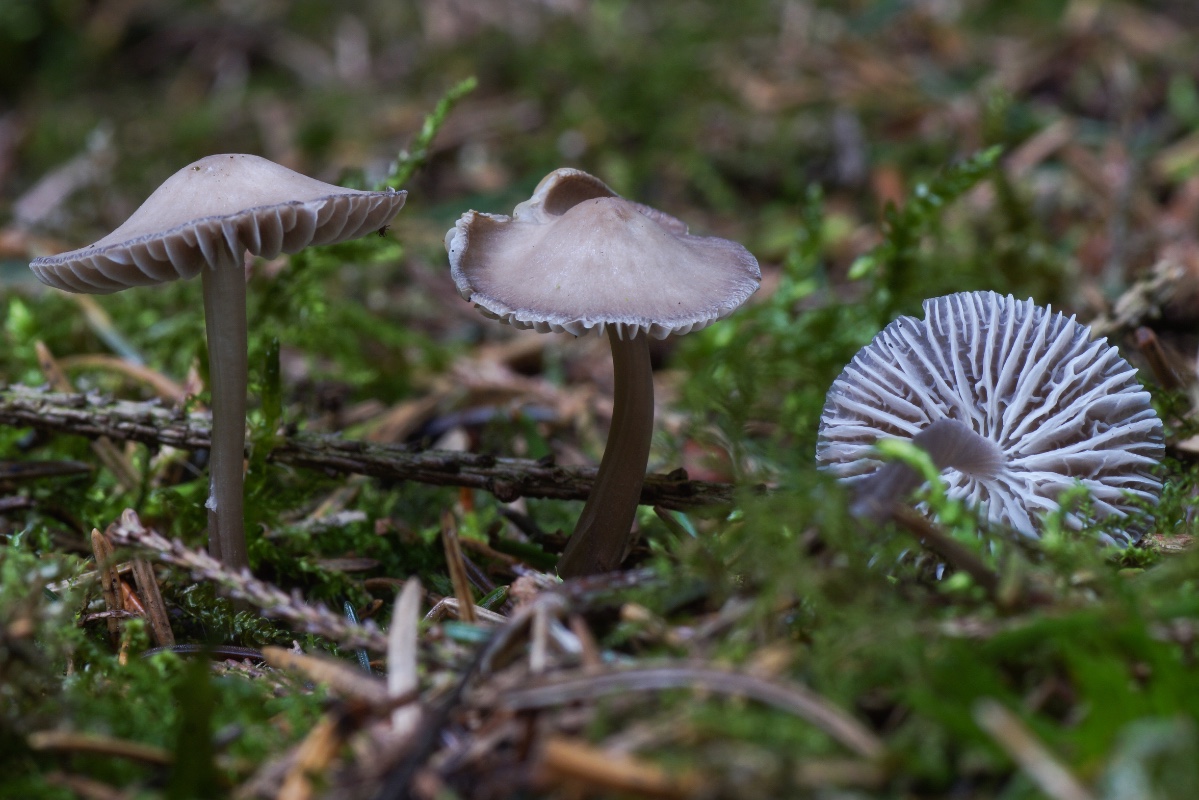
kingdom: Fungi
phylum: Basidiomycota
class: Agaricomycetes
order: Agaricales
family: Mycenaceae
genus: Mycena
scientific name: Mycena leptocephala
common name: klor-huesvamp
